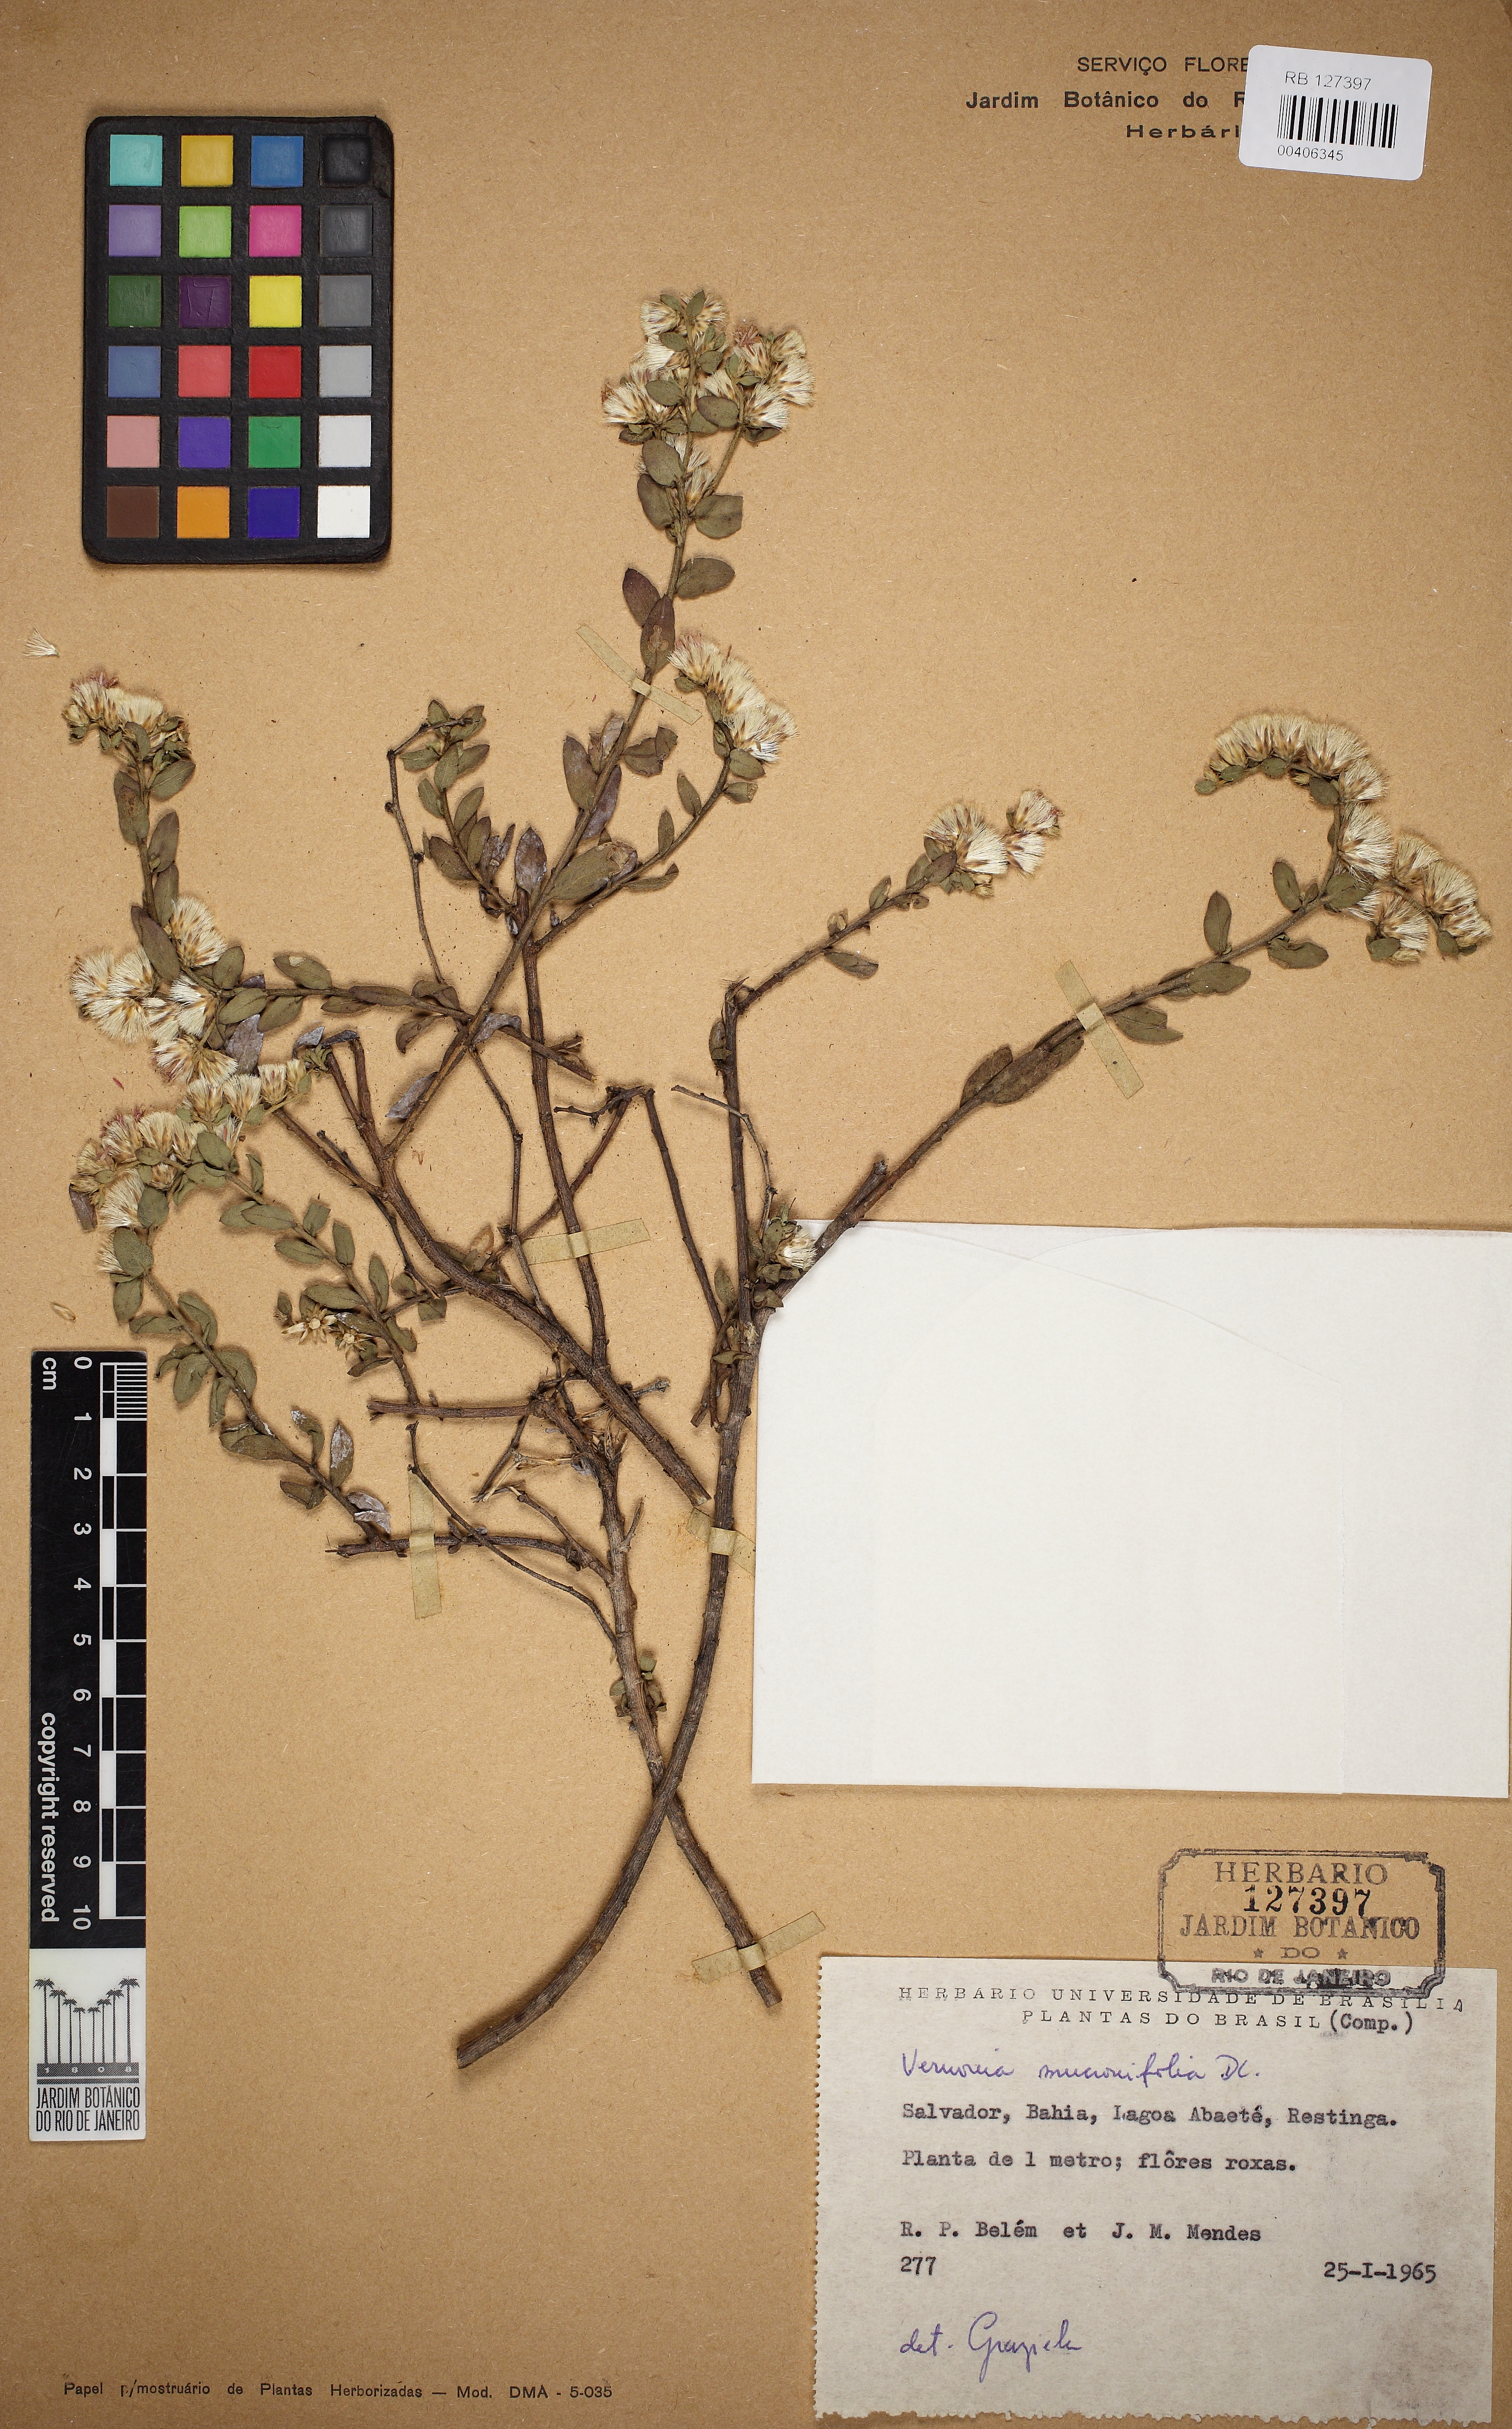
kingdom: Plantae
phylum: Tracheophyta
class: Magnoliopsida
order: Asterales
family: Asteraceae
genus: Lepidaploa
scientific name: Lepidaploa mucronifolia
